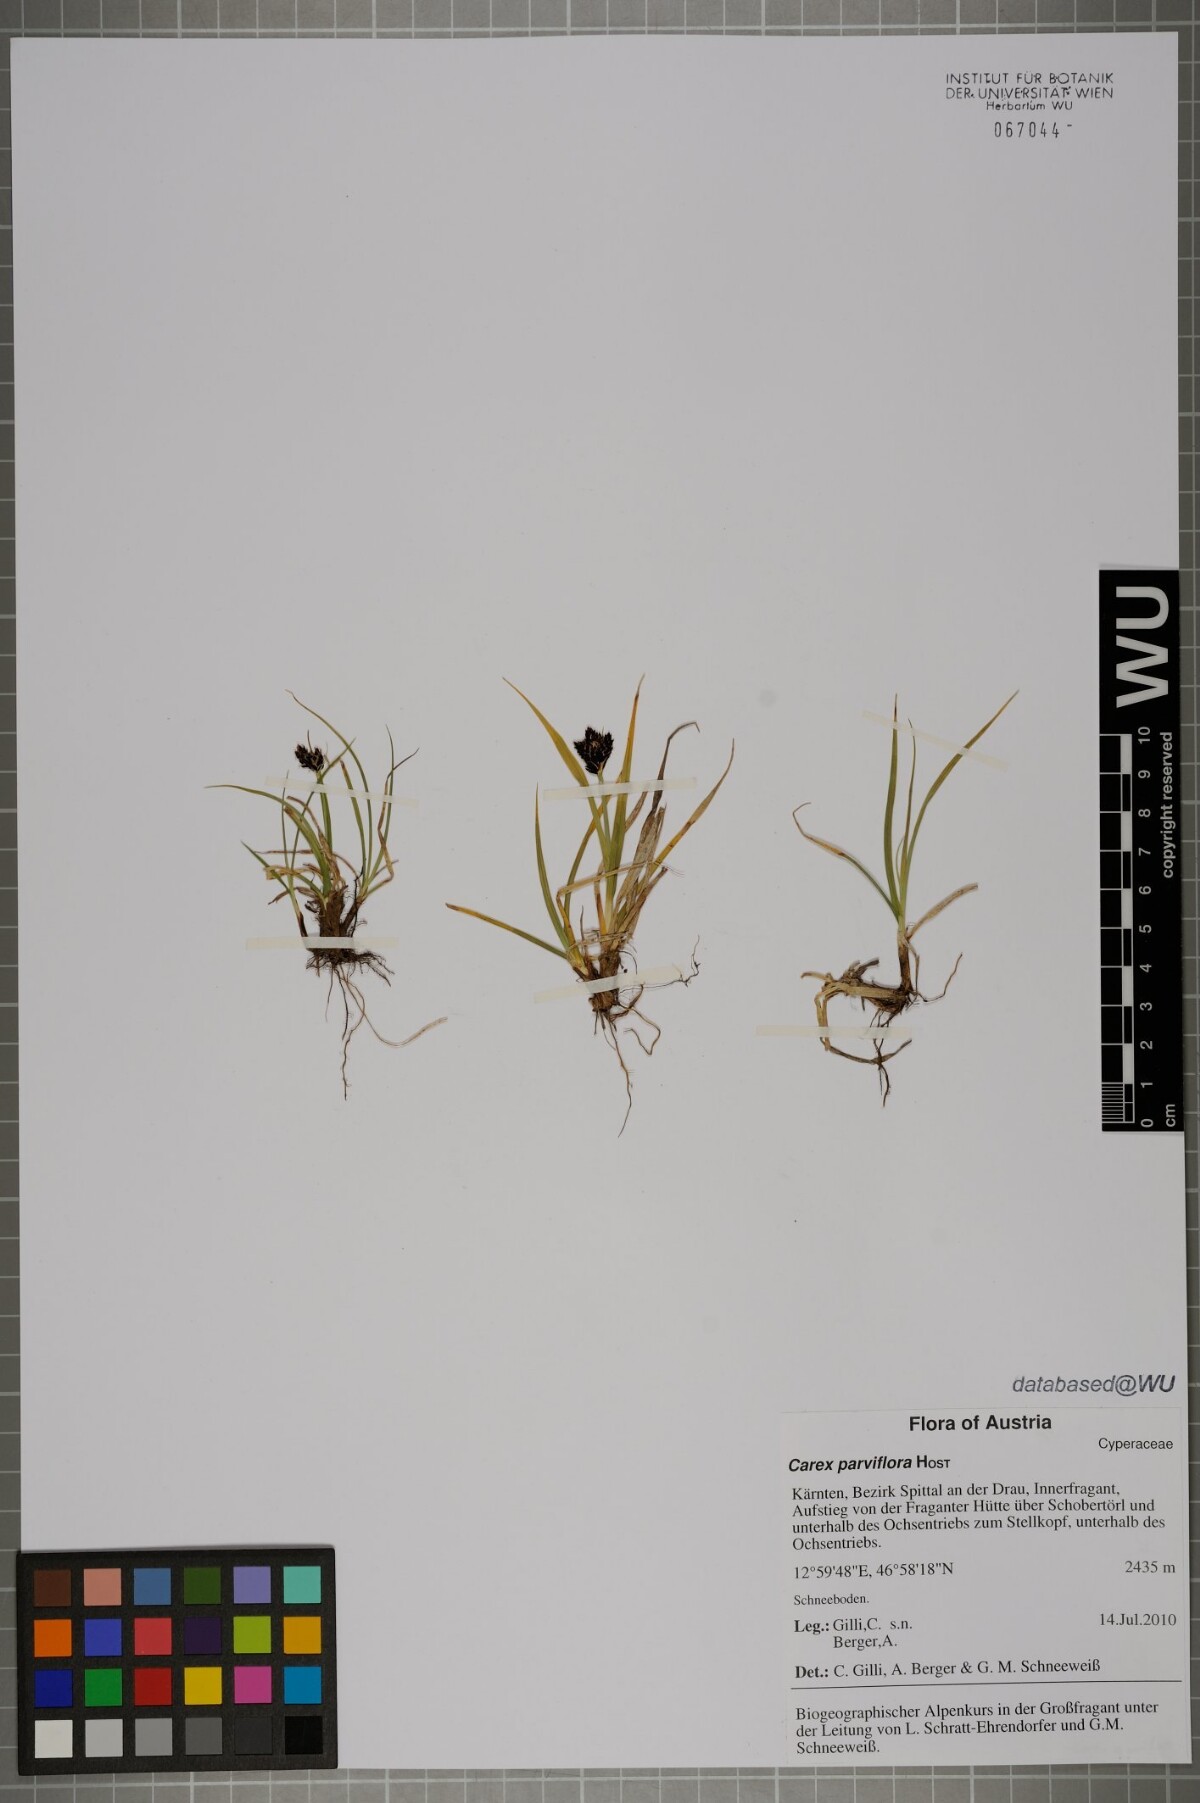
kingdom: Plantae
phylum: Tracheophyta
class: Liliopsida
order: Poales
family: Cyperaceae
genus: Carex
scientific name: Carex parviflora
